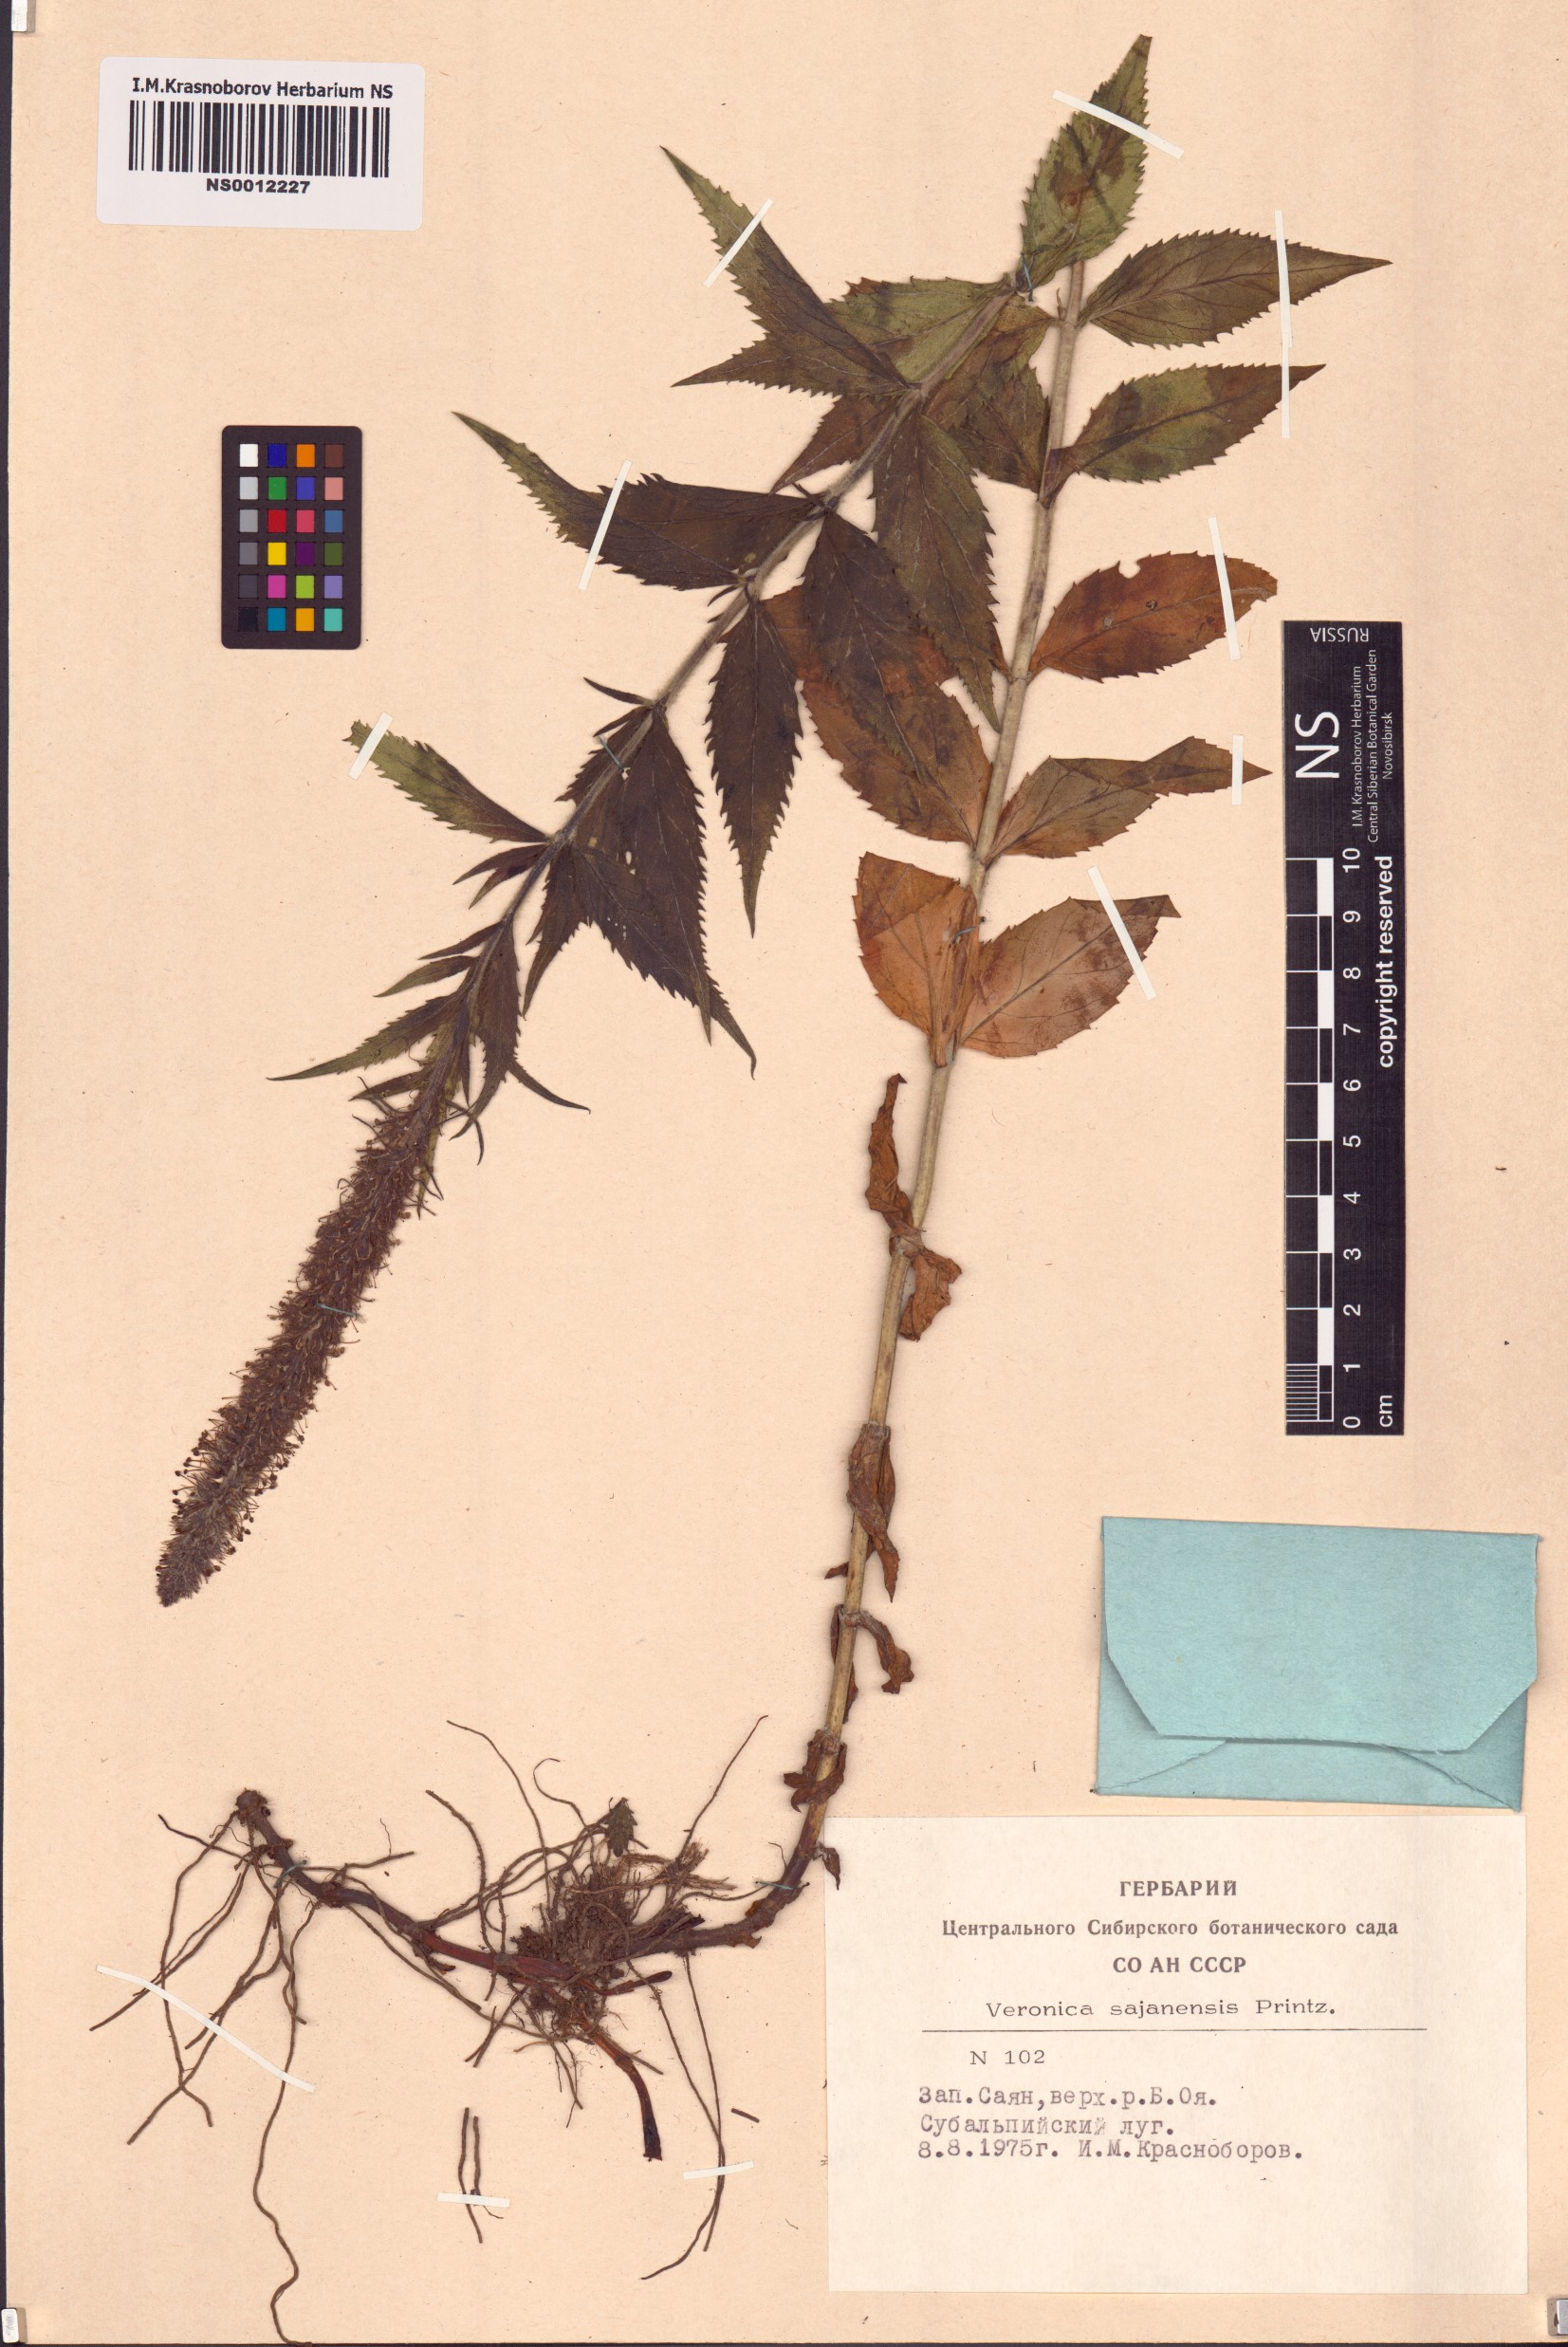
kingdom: Plantae
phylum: Tracheophyta
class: Magnoliopsida
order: Lamiales
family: Plantaginaceae
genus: Veronica
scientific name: Veronica sajanensis
